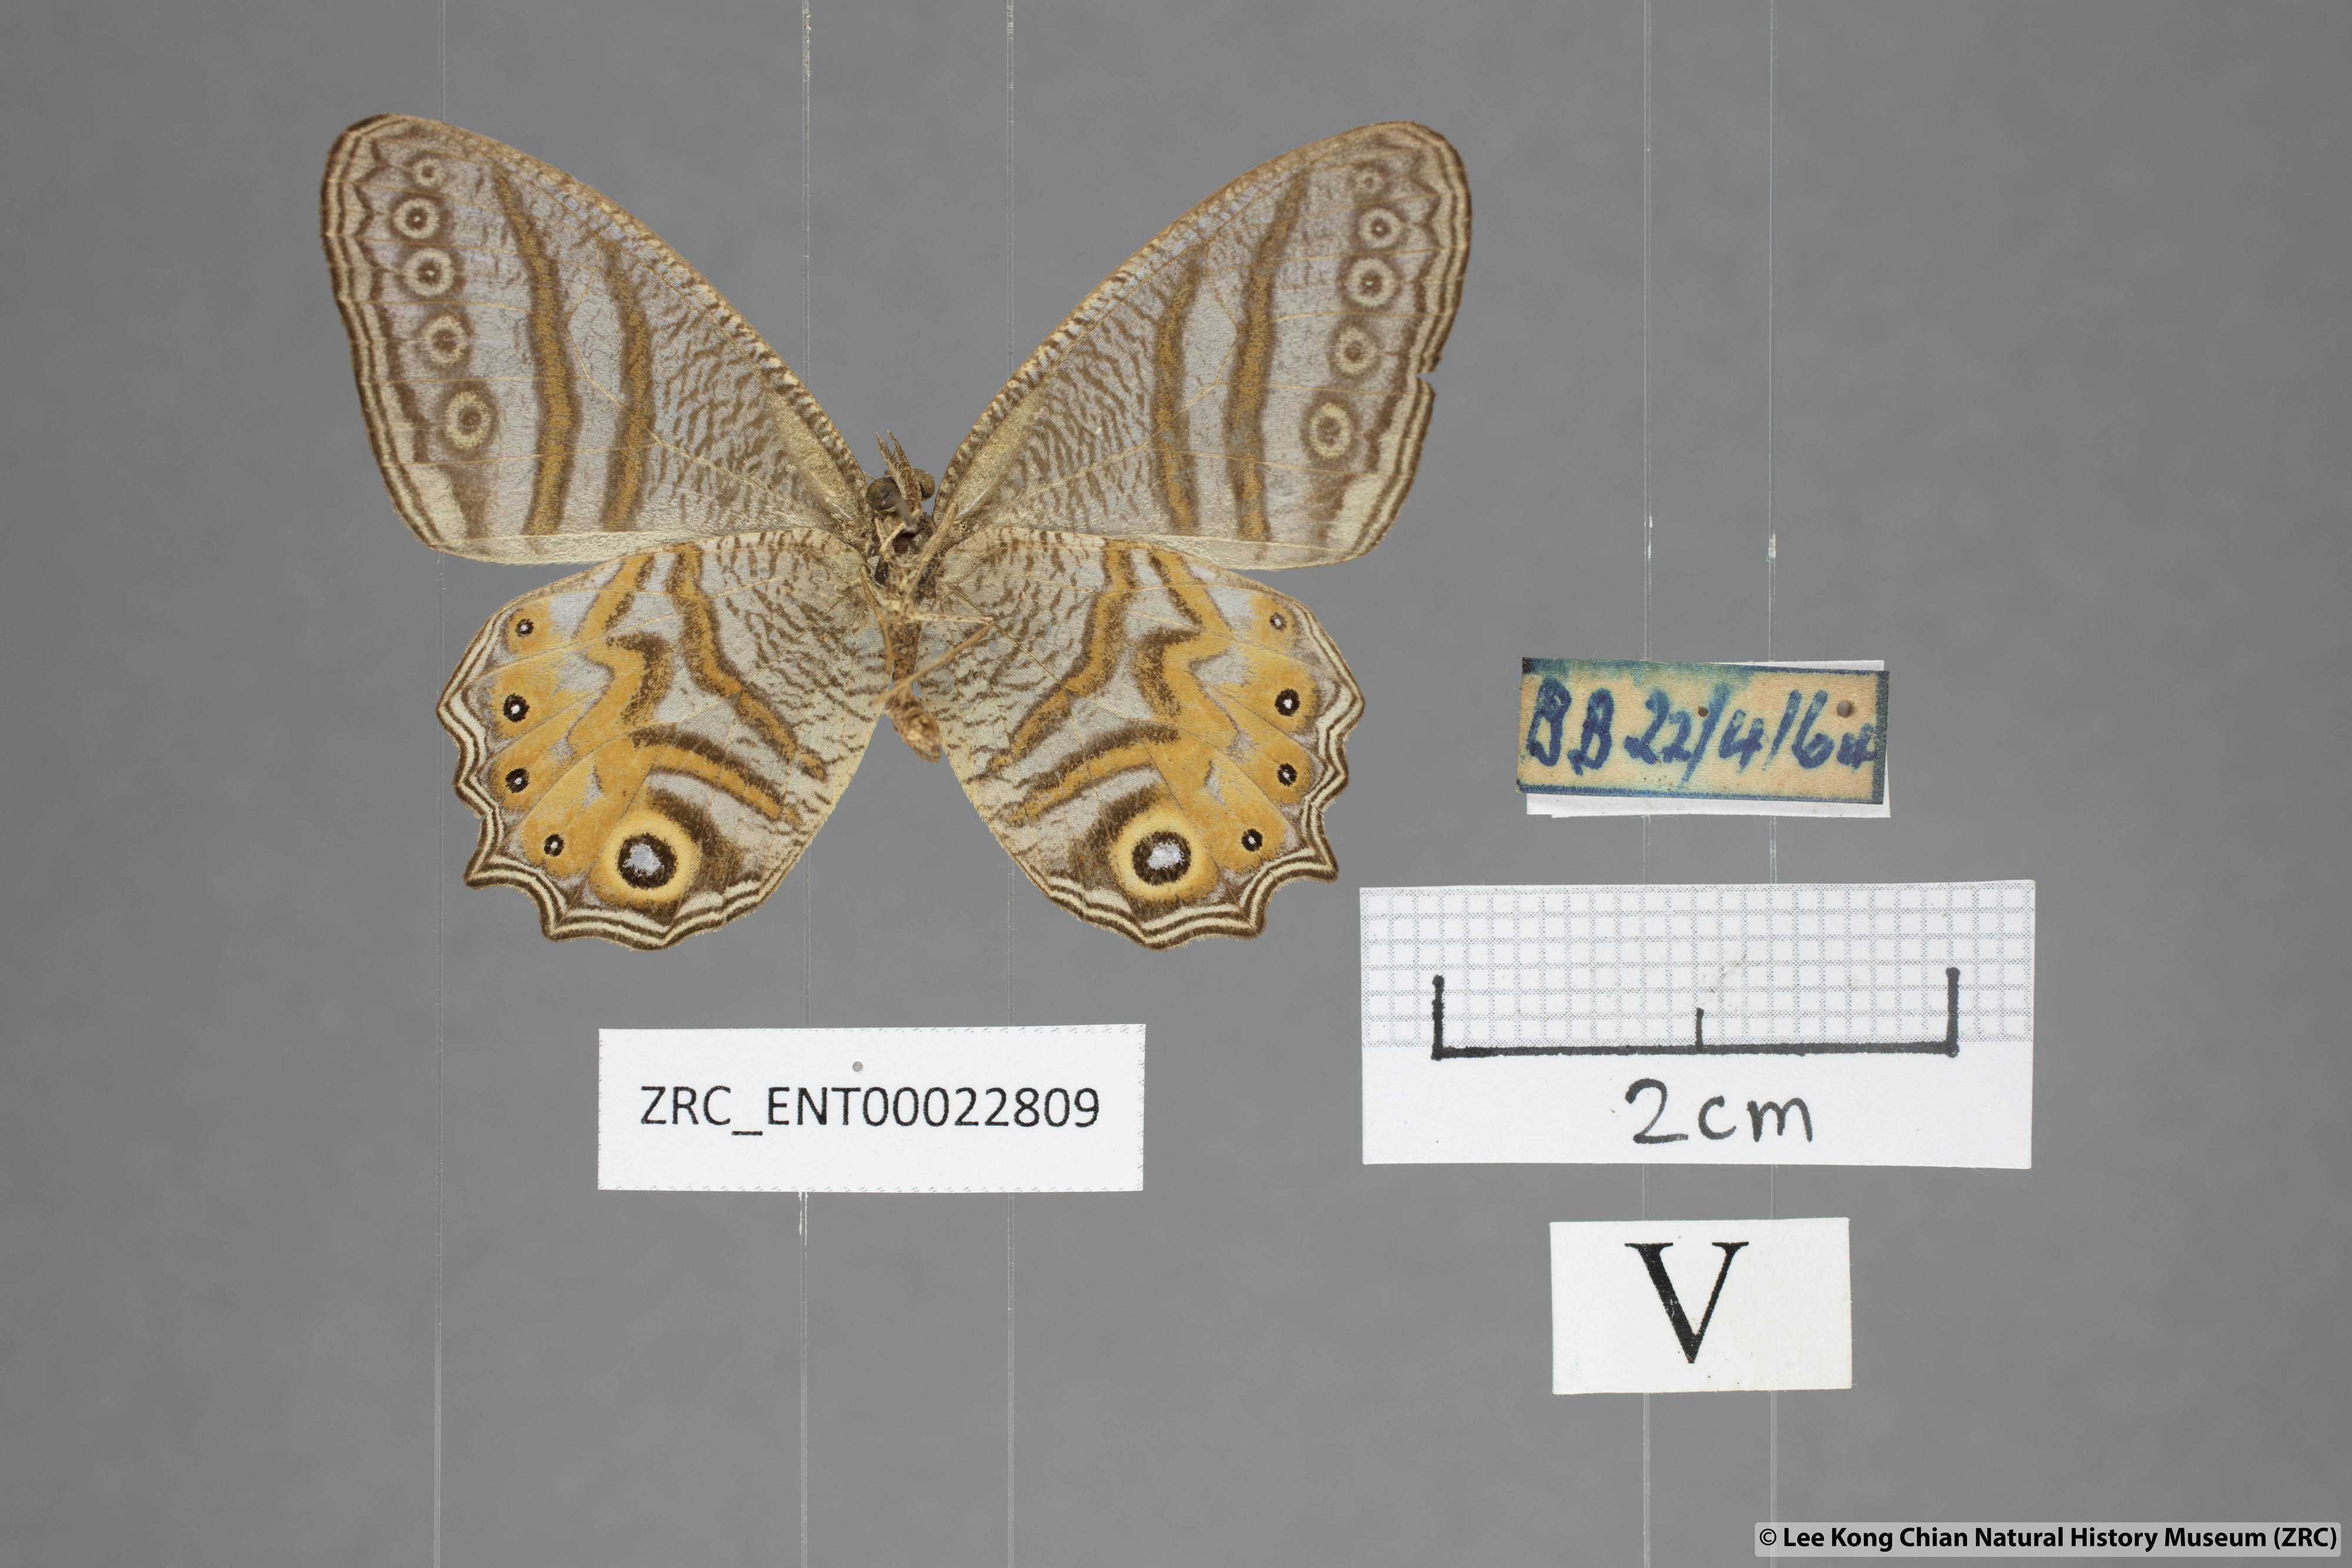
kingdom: Animalia
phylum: Arthropoda
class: Insecta
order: Lepidoptera
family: Nymphalidae
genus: Erites
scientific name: Erites elegans
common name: Elegent cyclops
